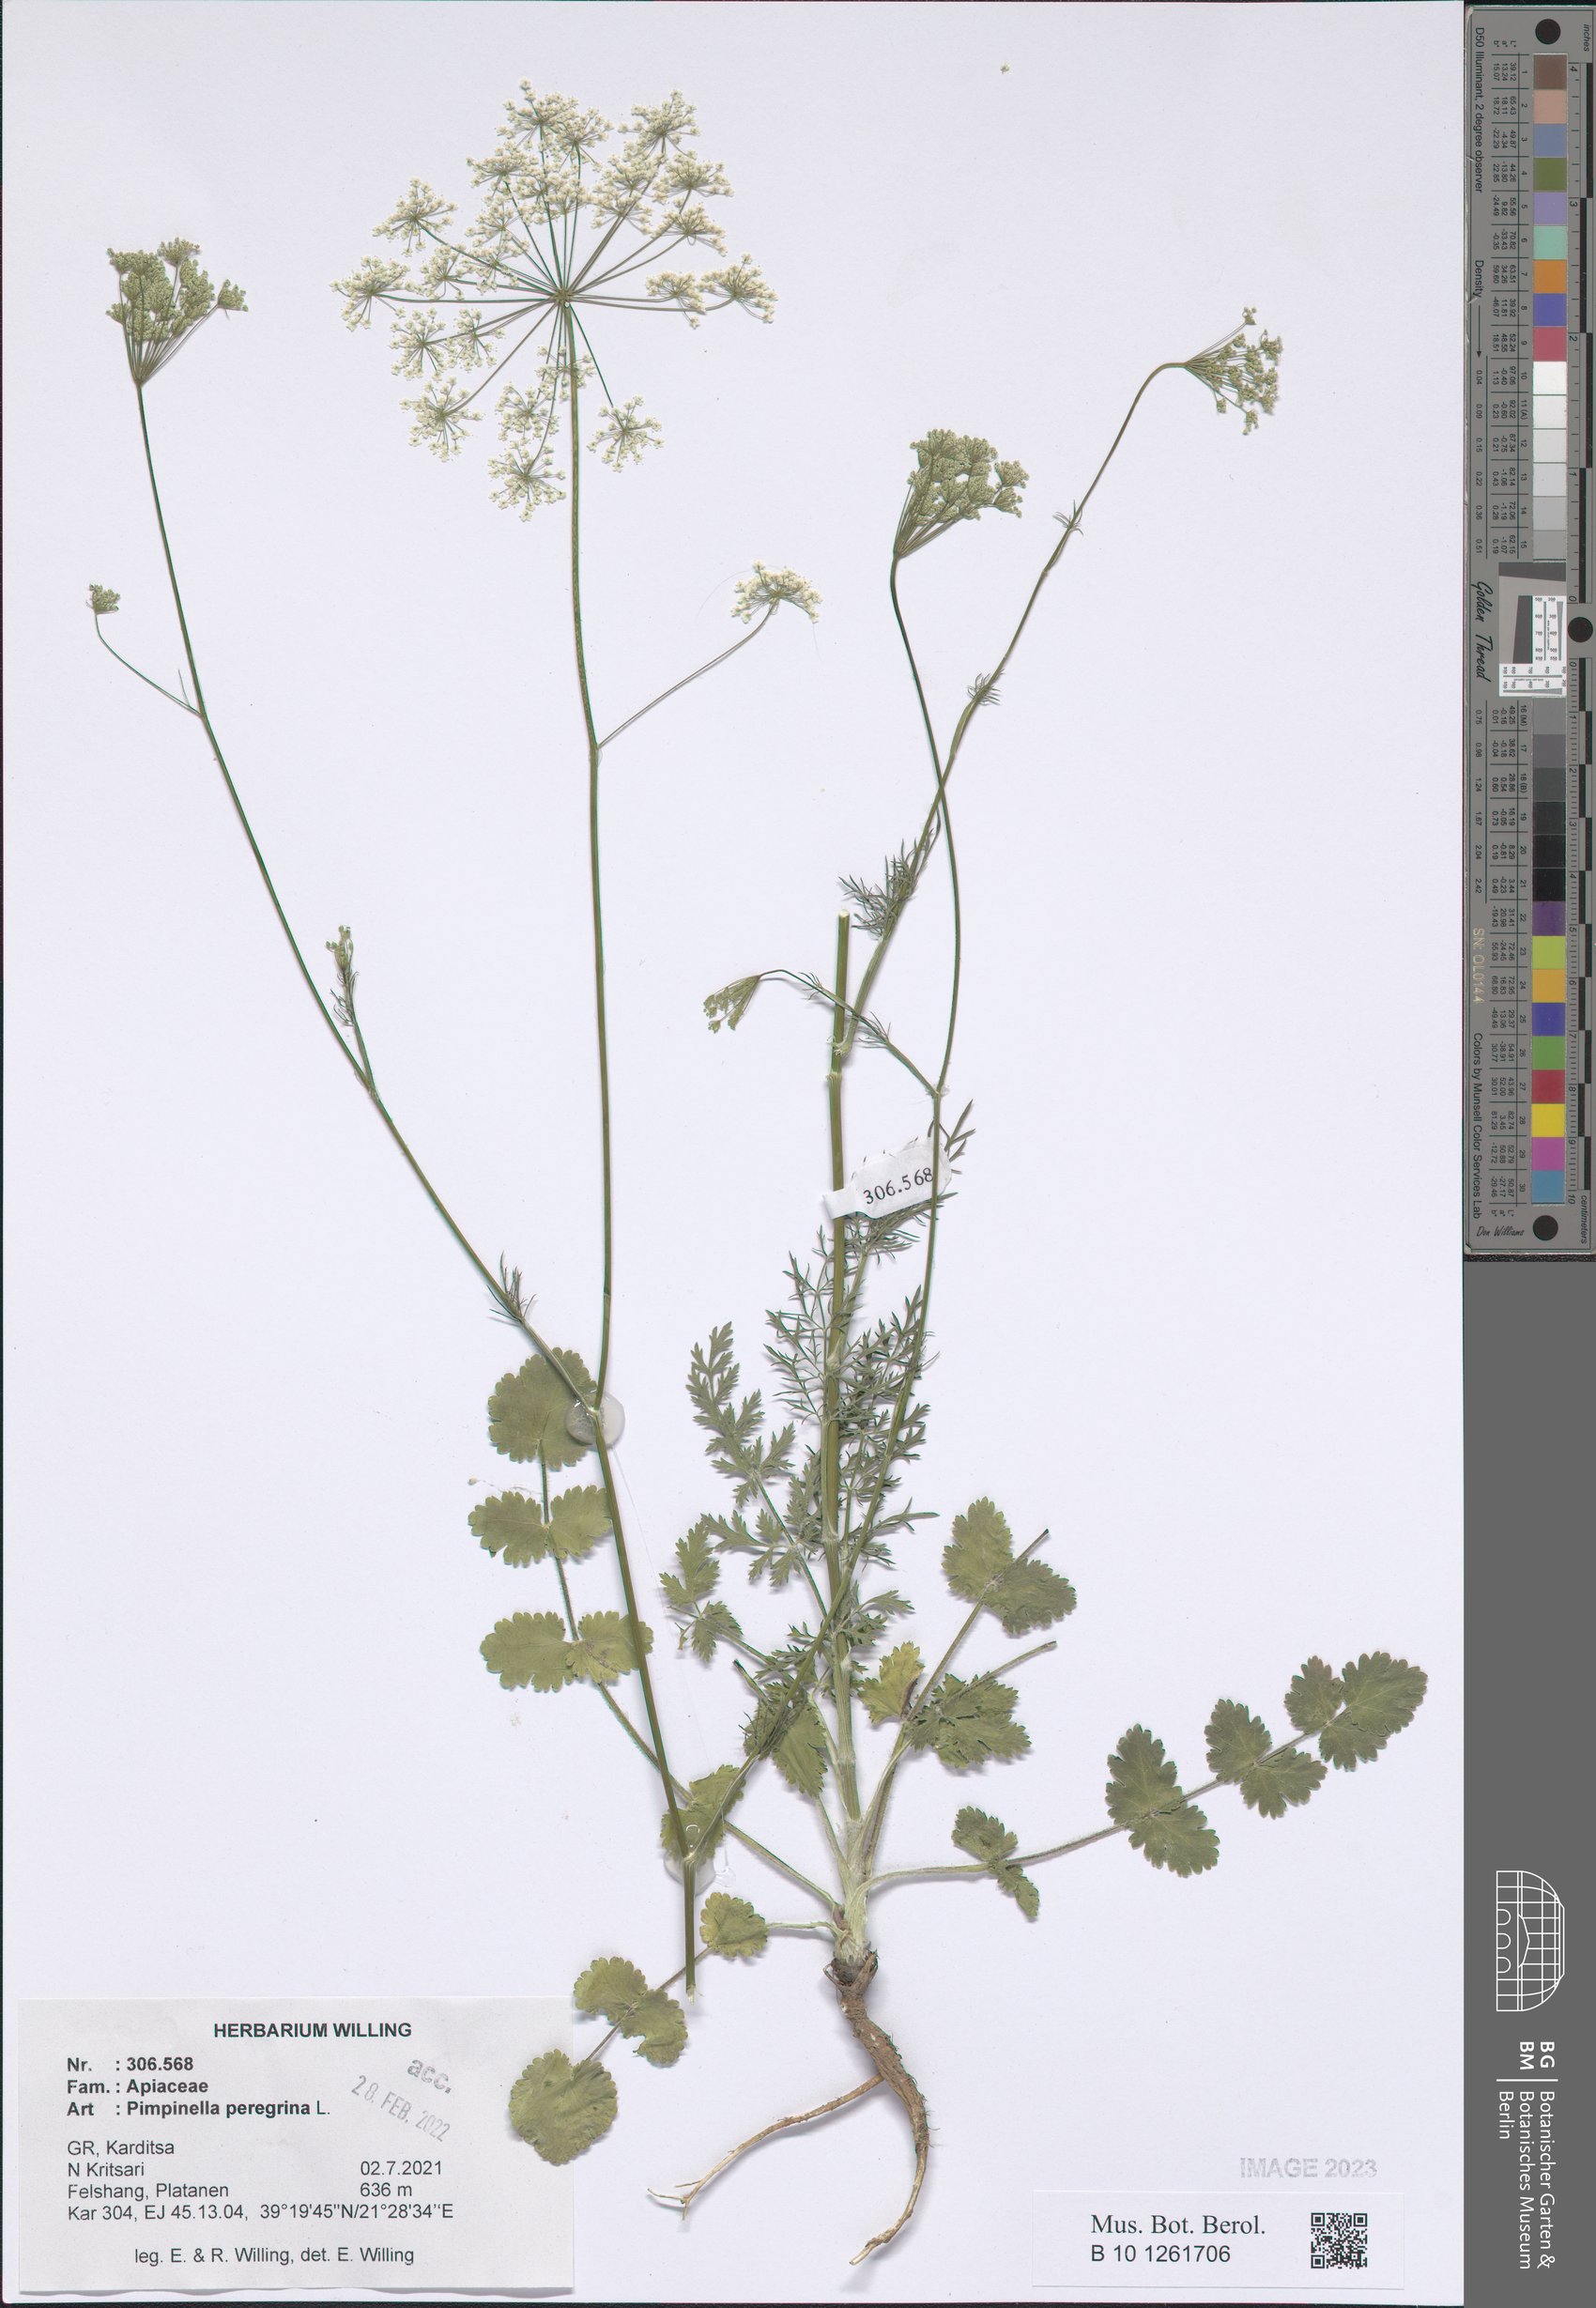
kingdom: Plantae
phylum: Tracheophyta
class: Magnoliopsida
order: Apiales
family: Apiaceae
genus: Pimpinella
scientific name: Pimpinella peregrina
